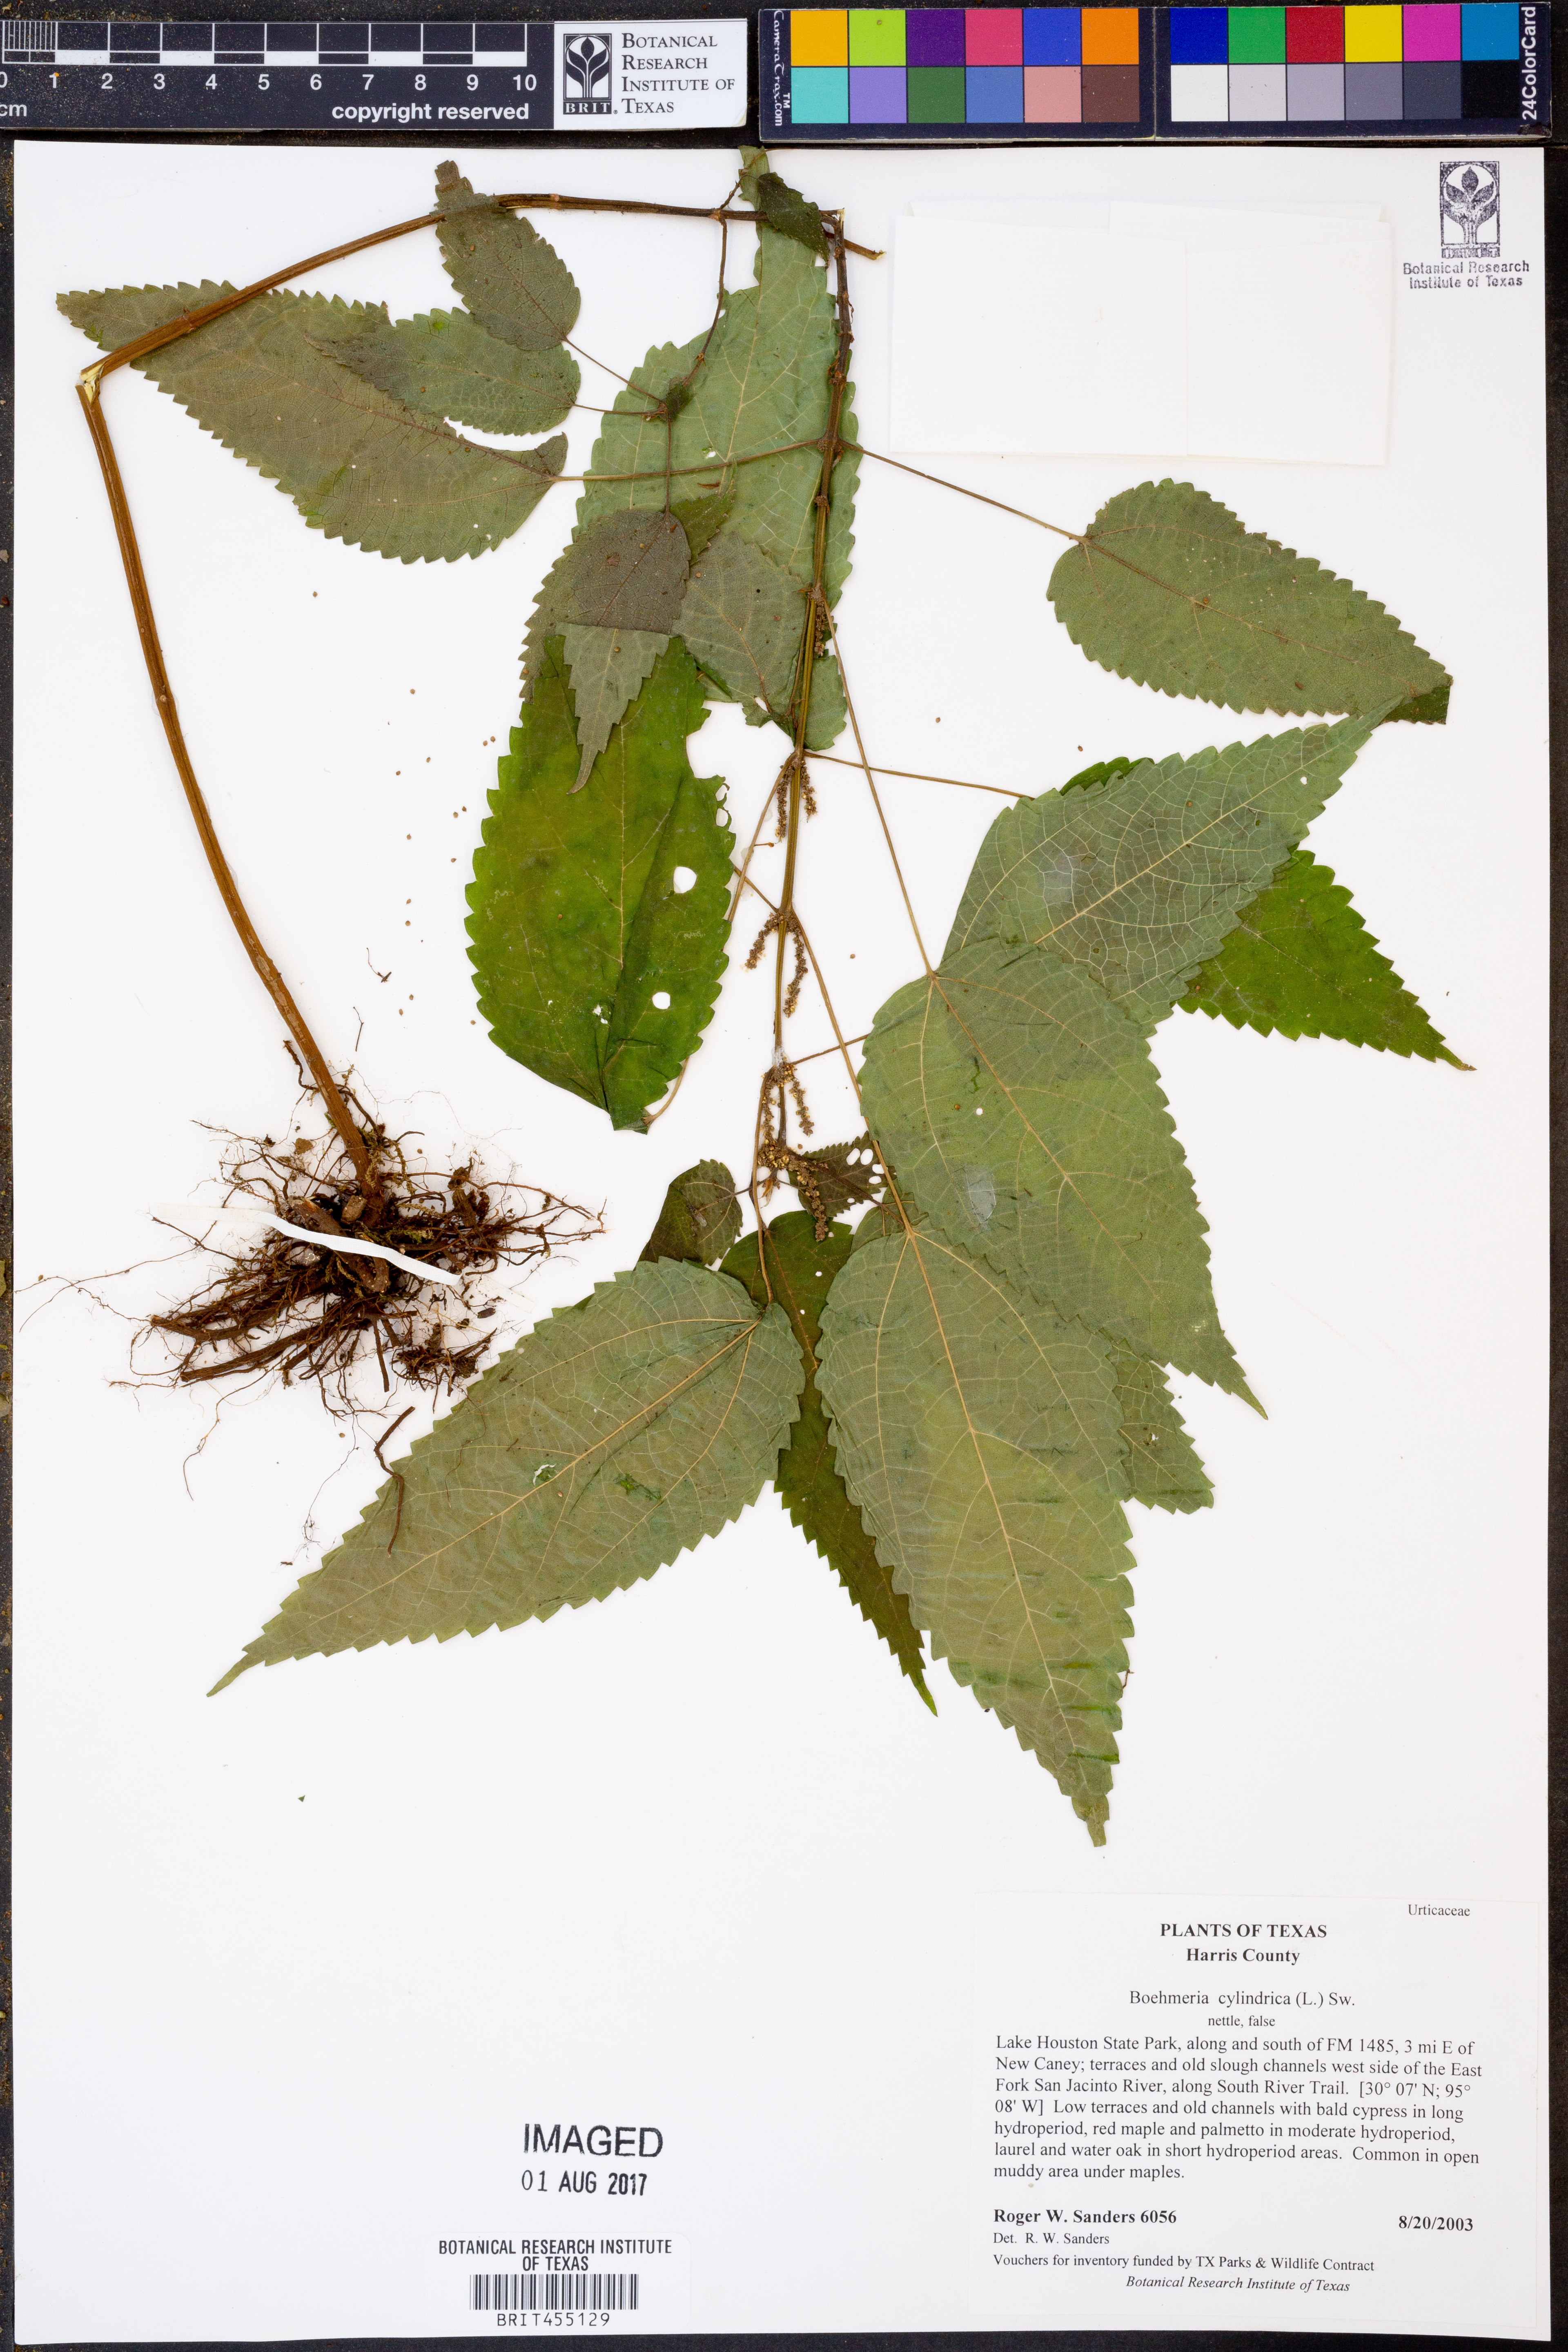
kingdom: Plantae
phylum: Tracheophyta
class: Magnoliopsida
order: Rosales
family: Urticaceae
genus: Boehmeria
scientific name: Boehmeria cylindrica
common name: Bog-hemp
